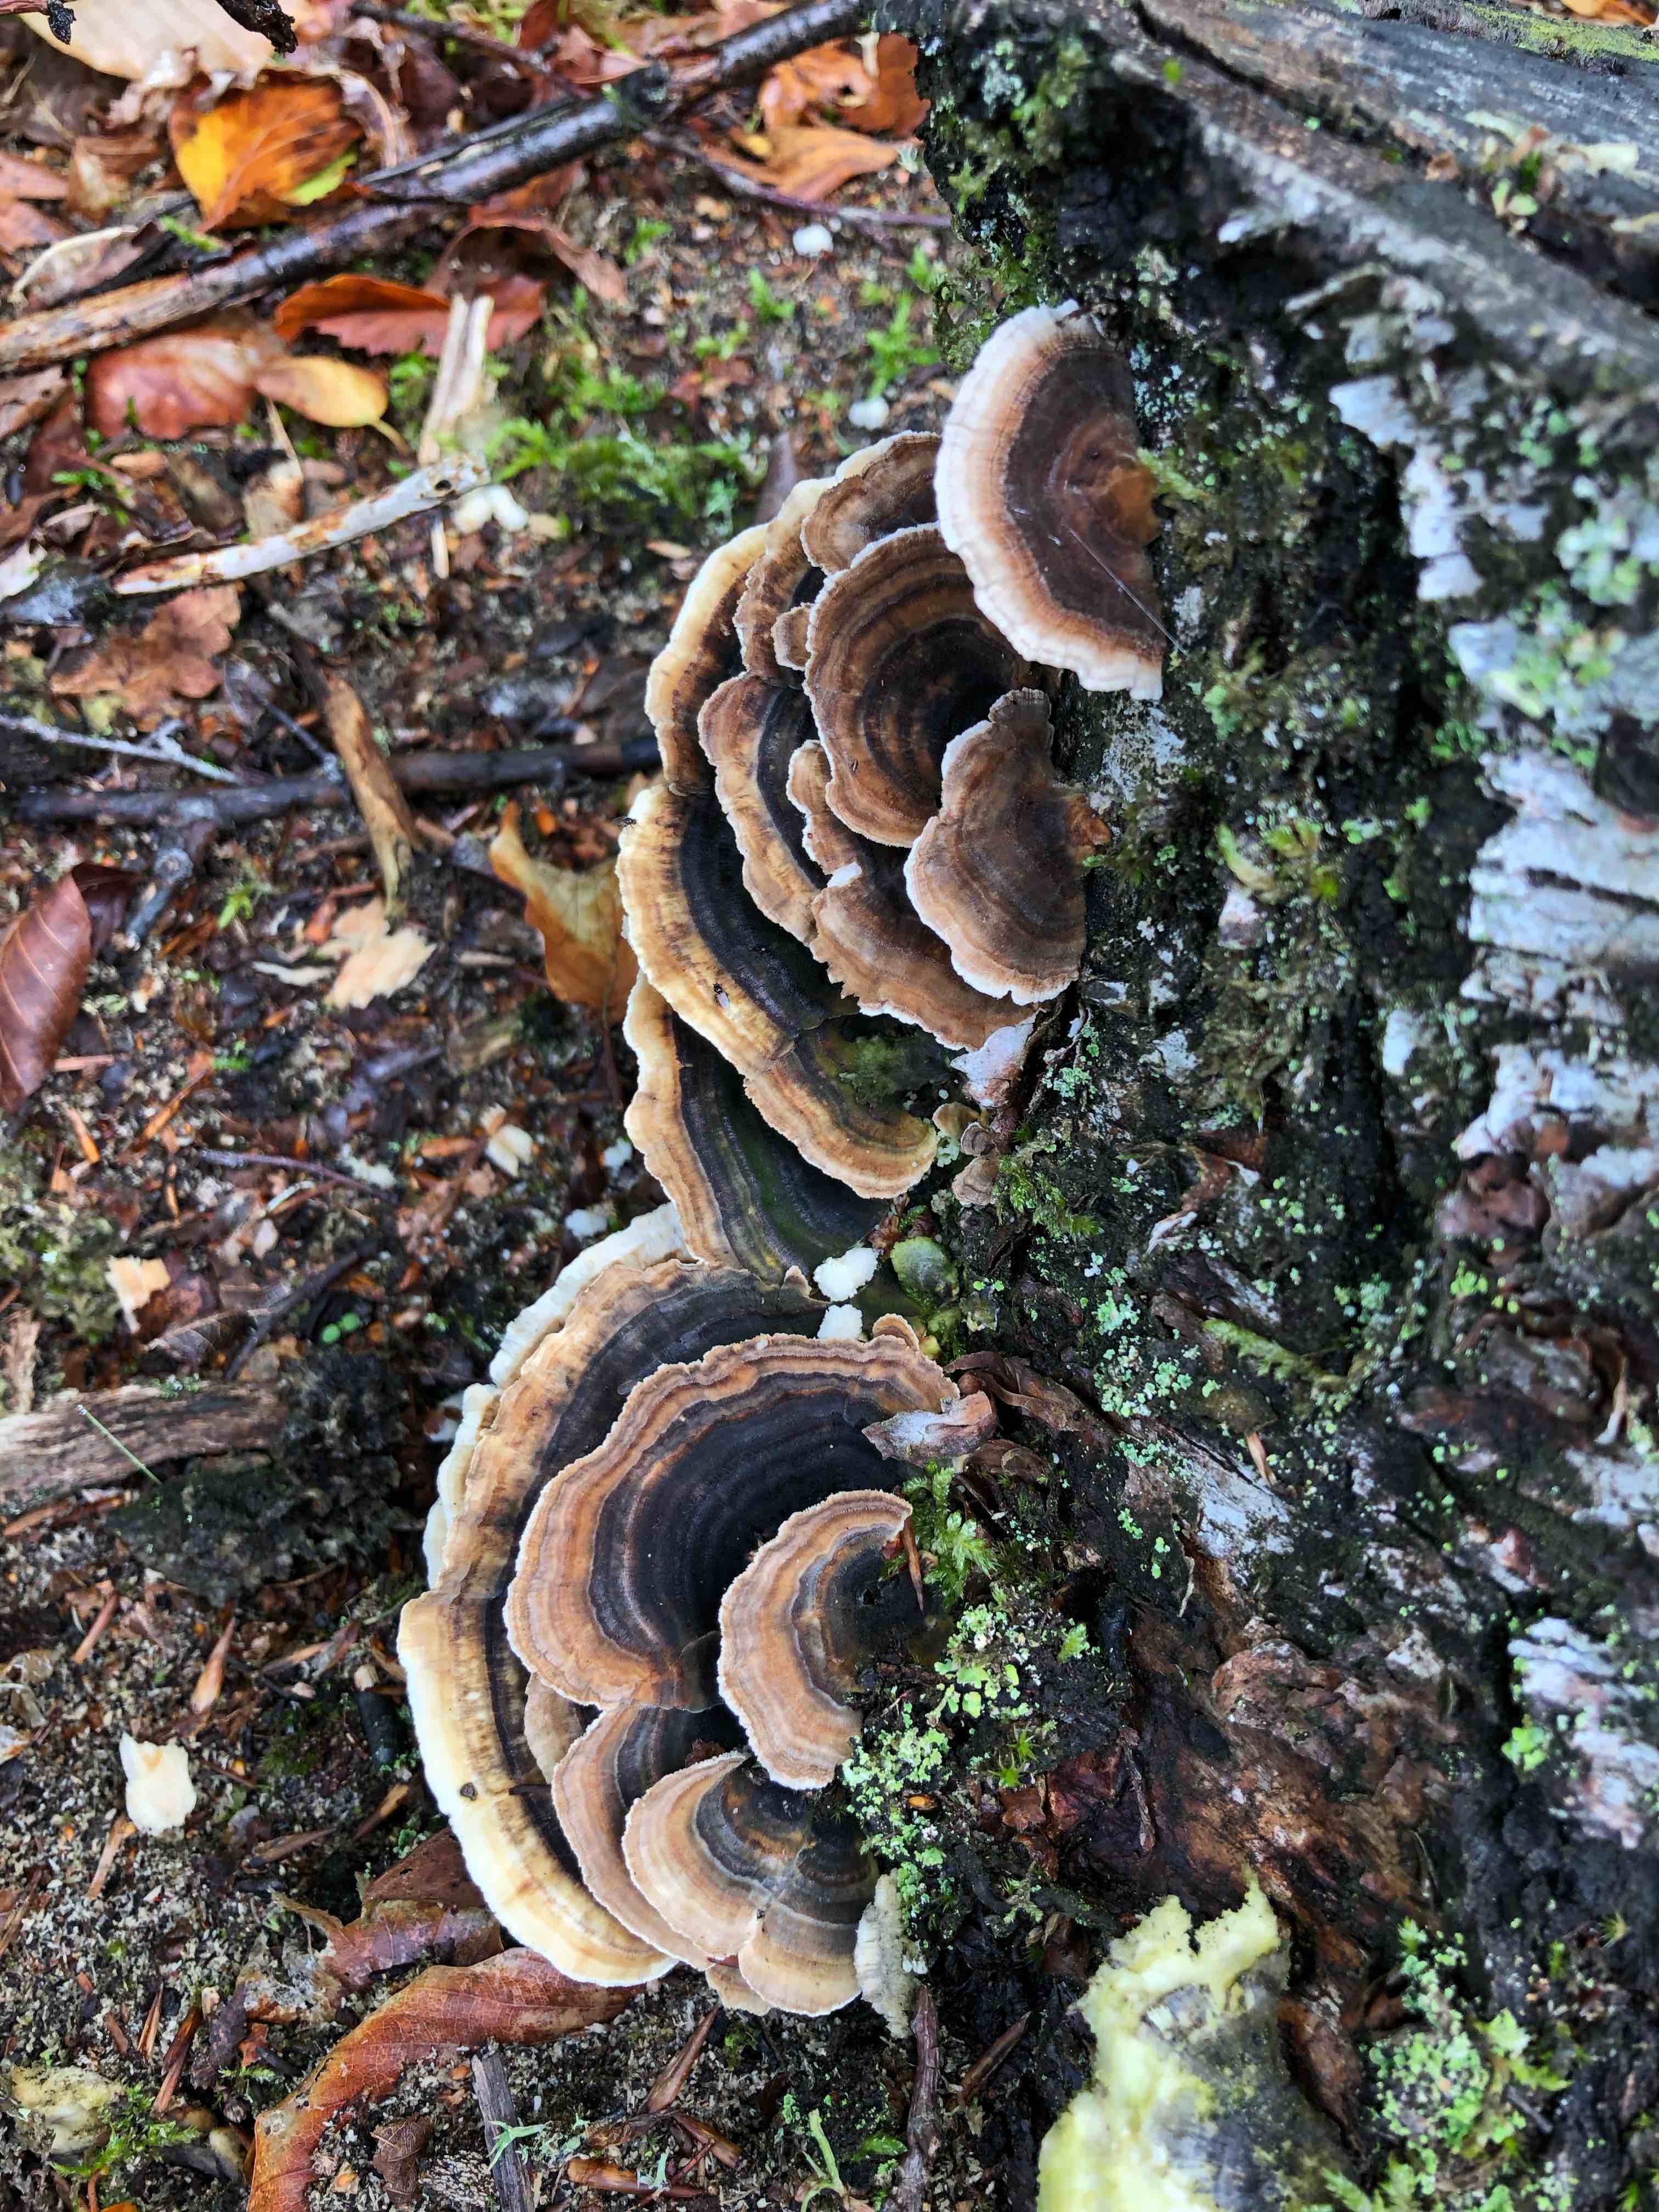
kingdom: Fungi
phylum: Basidiomycota
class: Agaricomycetes
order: Polyporales
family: Polyporaceae
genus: Trametes
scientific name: Trametes versicolor
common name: broget læderporesvamp
